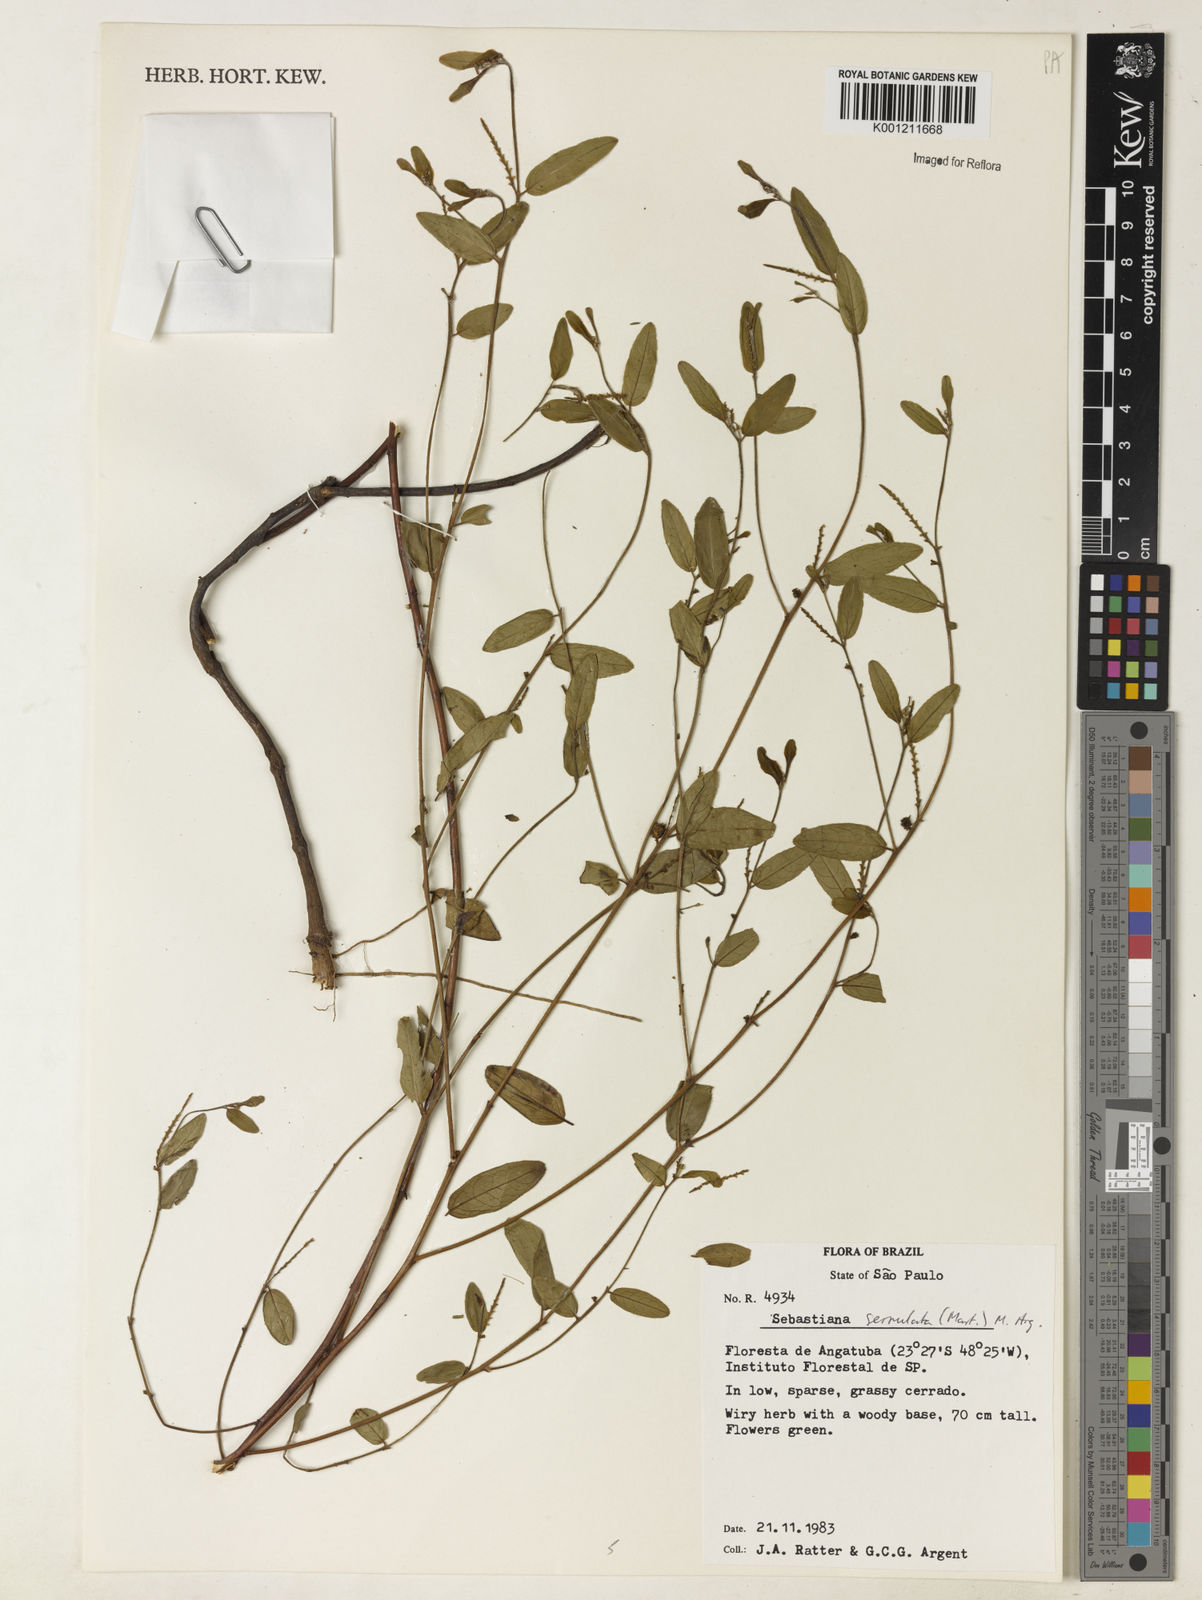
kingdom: Plantae
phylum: Tracheophyta
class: Magnoliopsida
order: Malpighiales
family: Euphorbiaceae
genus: Microstachys
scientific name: Microstachys
